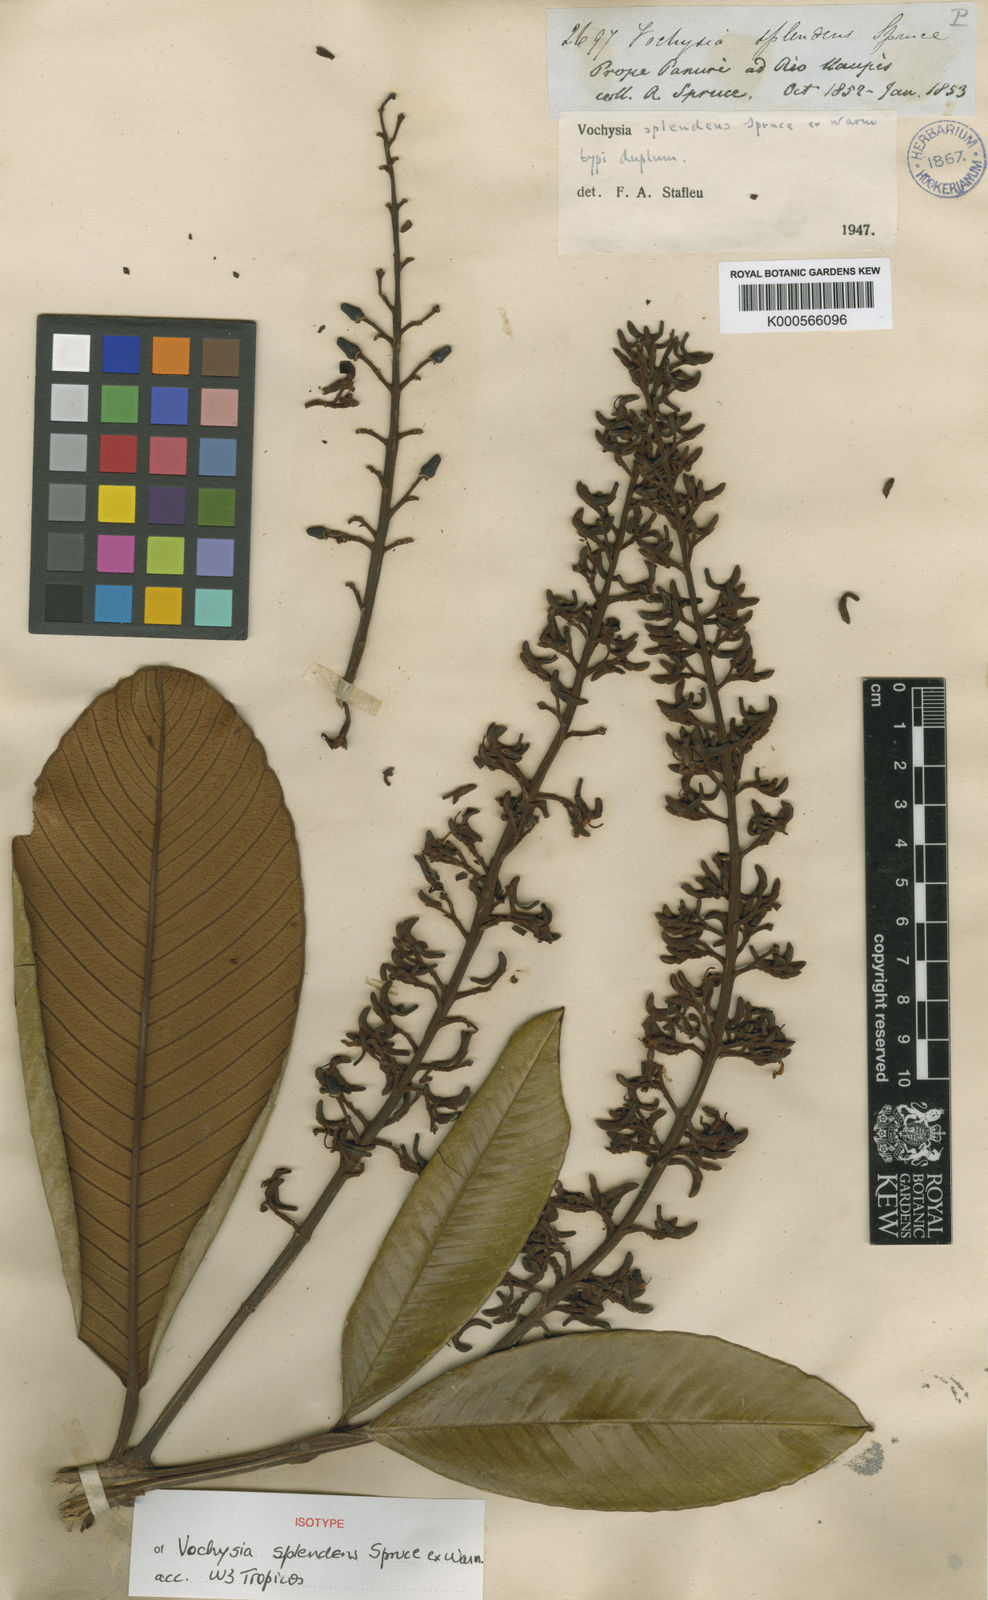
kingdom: Plantae
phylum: Tracheophyta
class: Magnoliopsida
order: Myrtales
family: Vochysiaceae
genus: Vochysia
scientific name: Vochysia splendens
